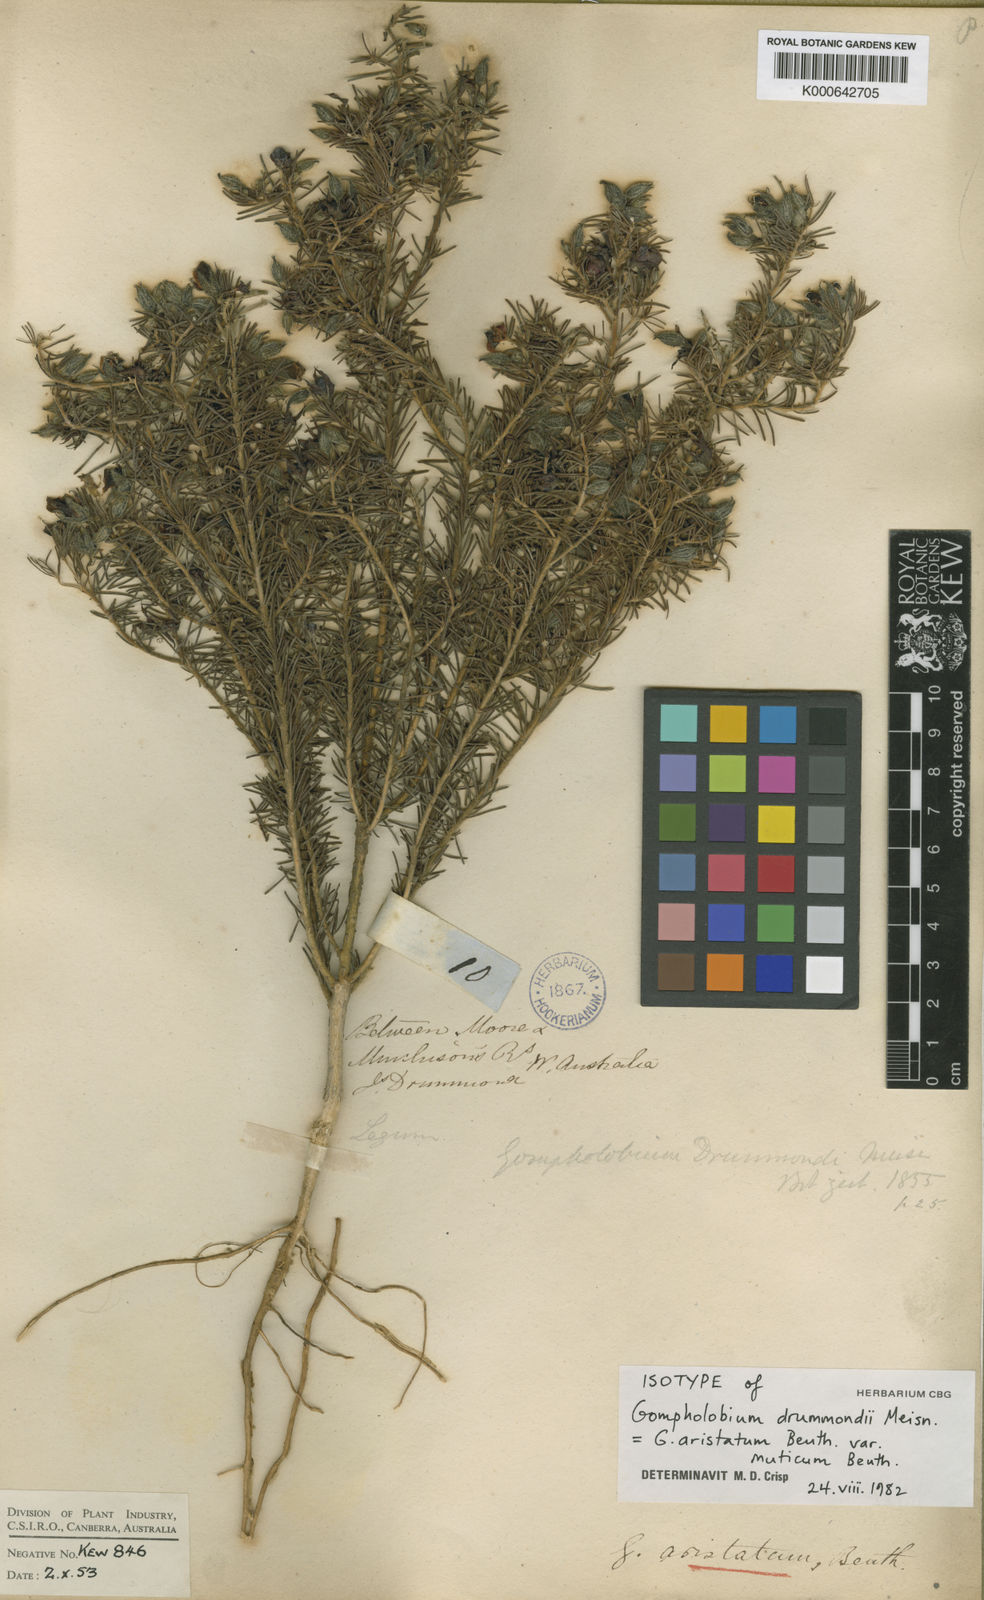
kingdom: Plantae
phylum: Tracheophyta
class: Magnoliopsida
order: Fabales
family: Fabaceae
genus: Gompholobium
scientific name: Gompholobium aristatum
